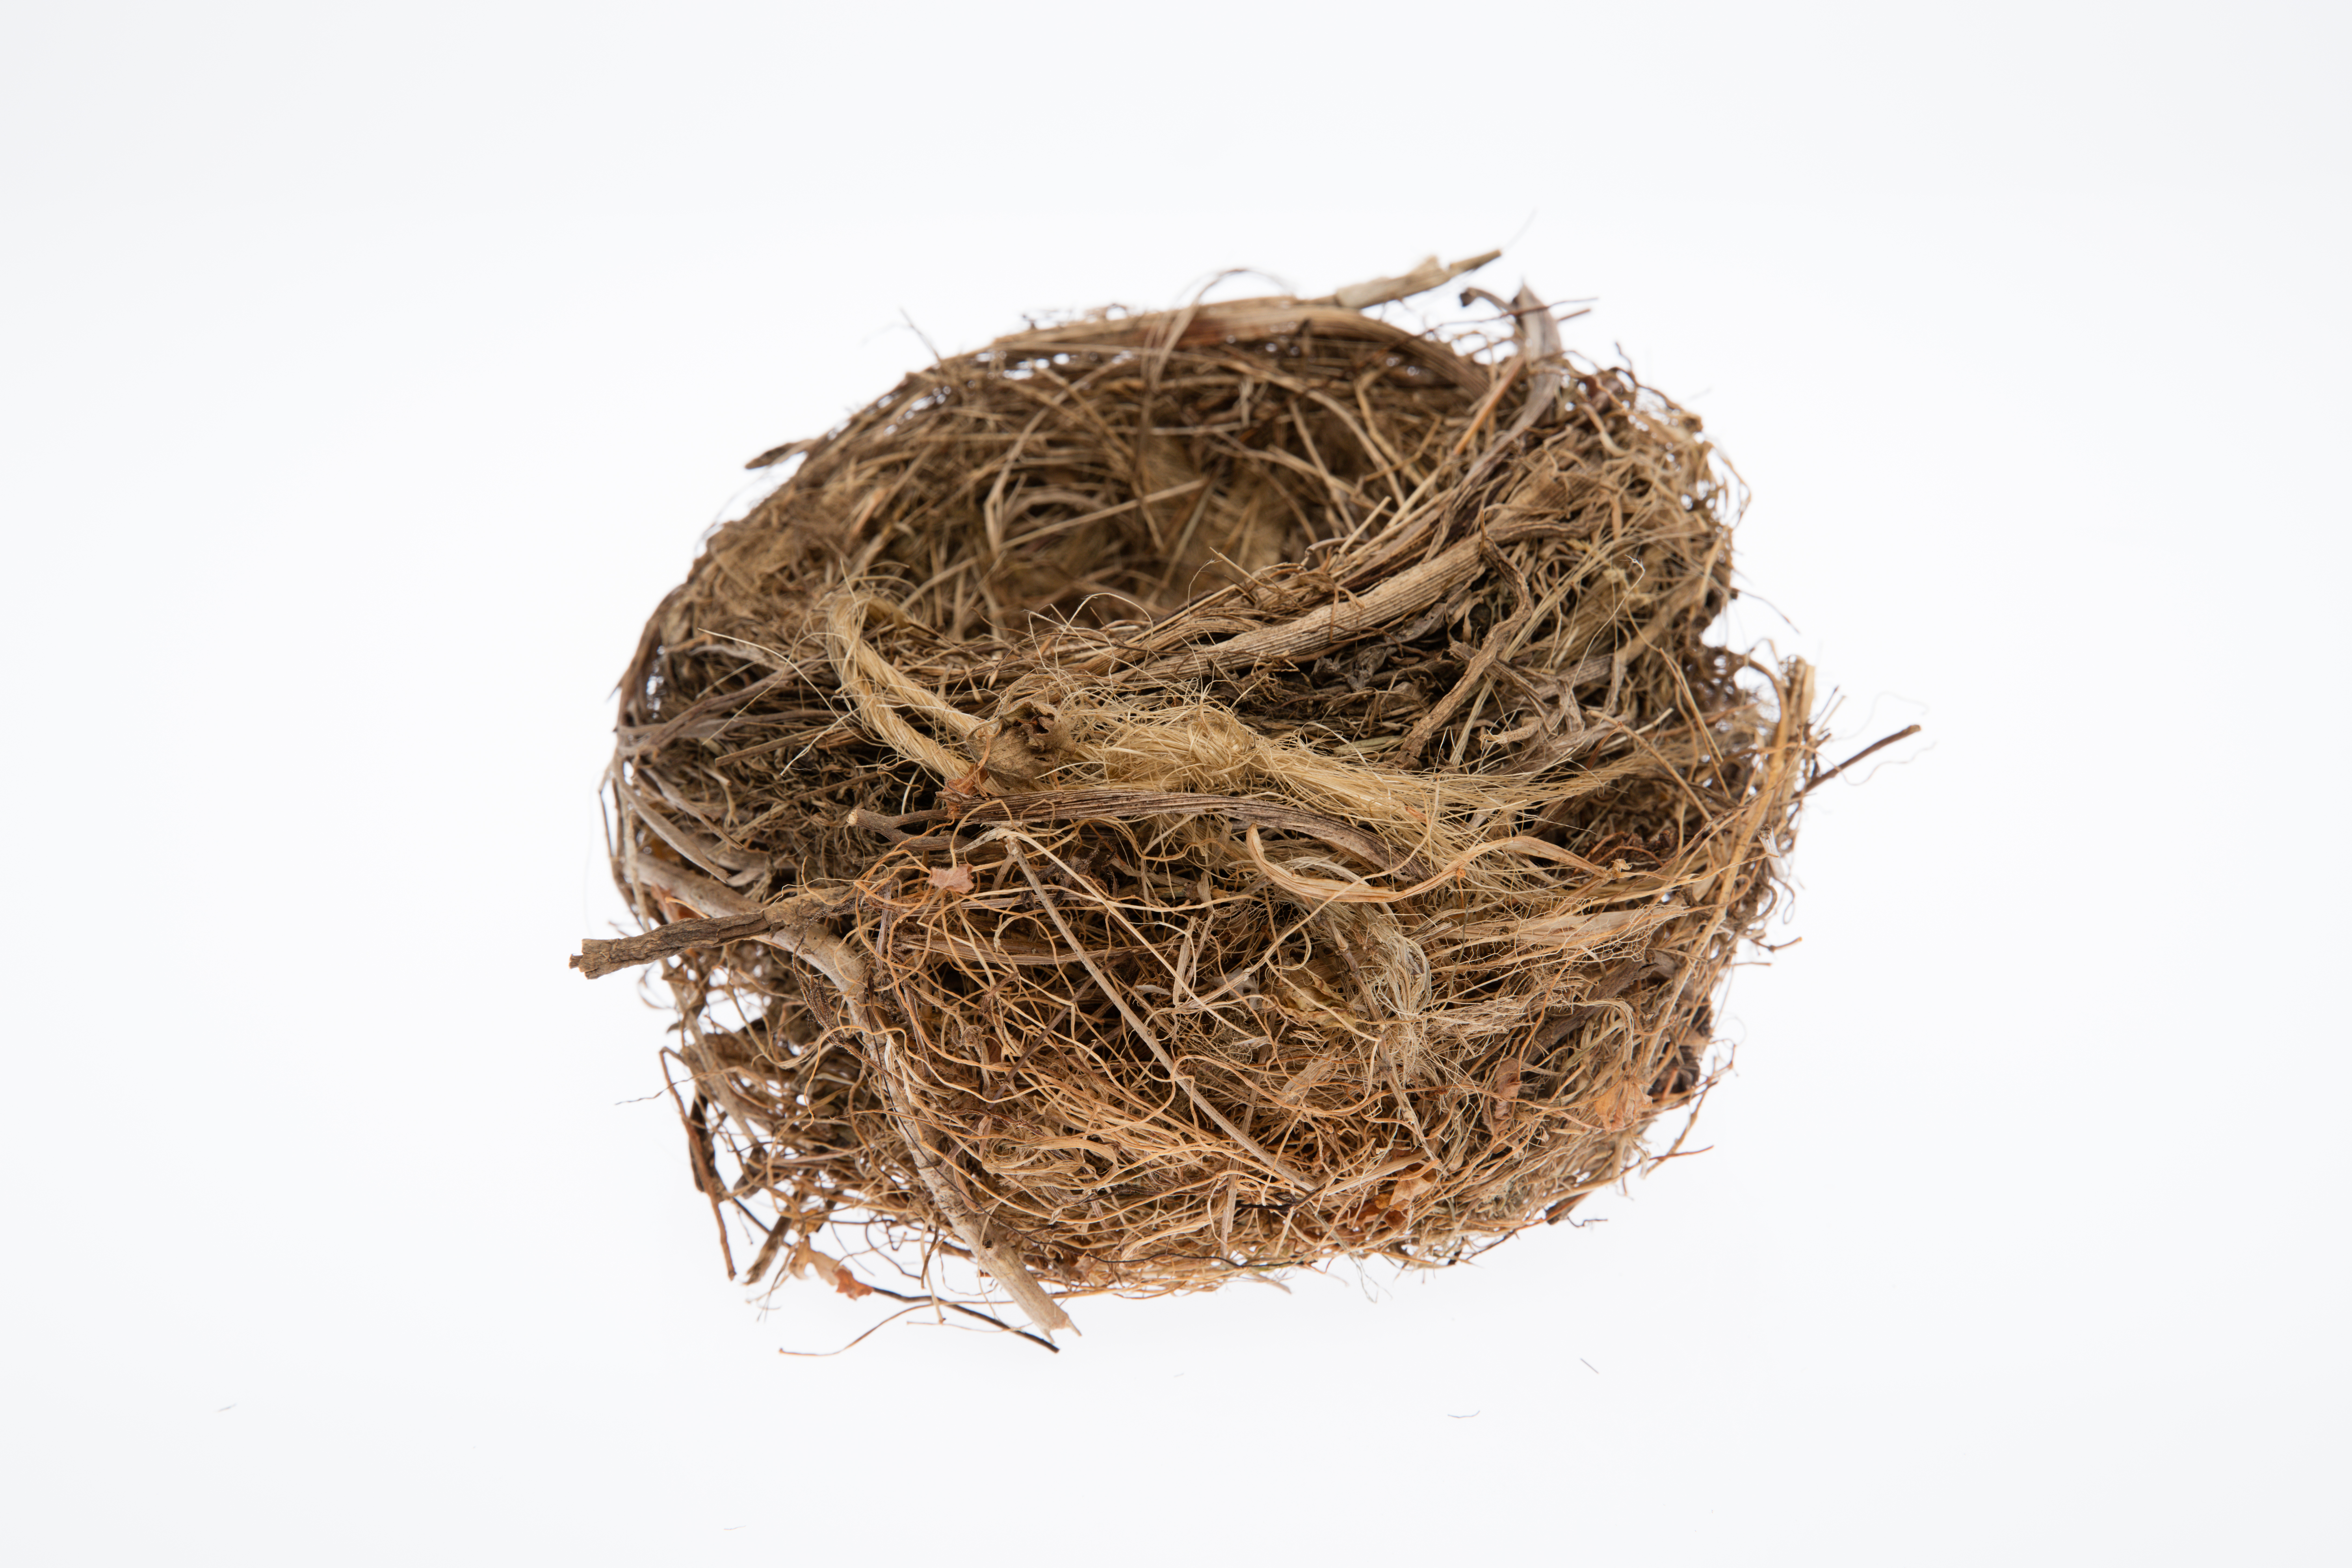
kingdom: Animalia
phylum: Chordata
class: Aves
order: Passeriformes
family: Turdidae
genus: Turdus
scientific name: Turdus merula
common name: Common blackbird
